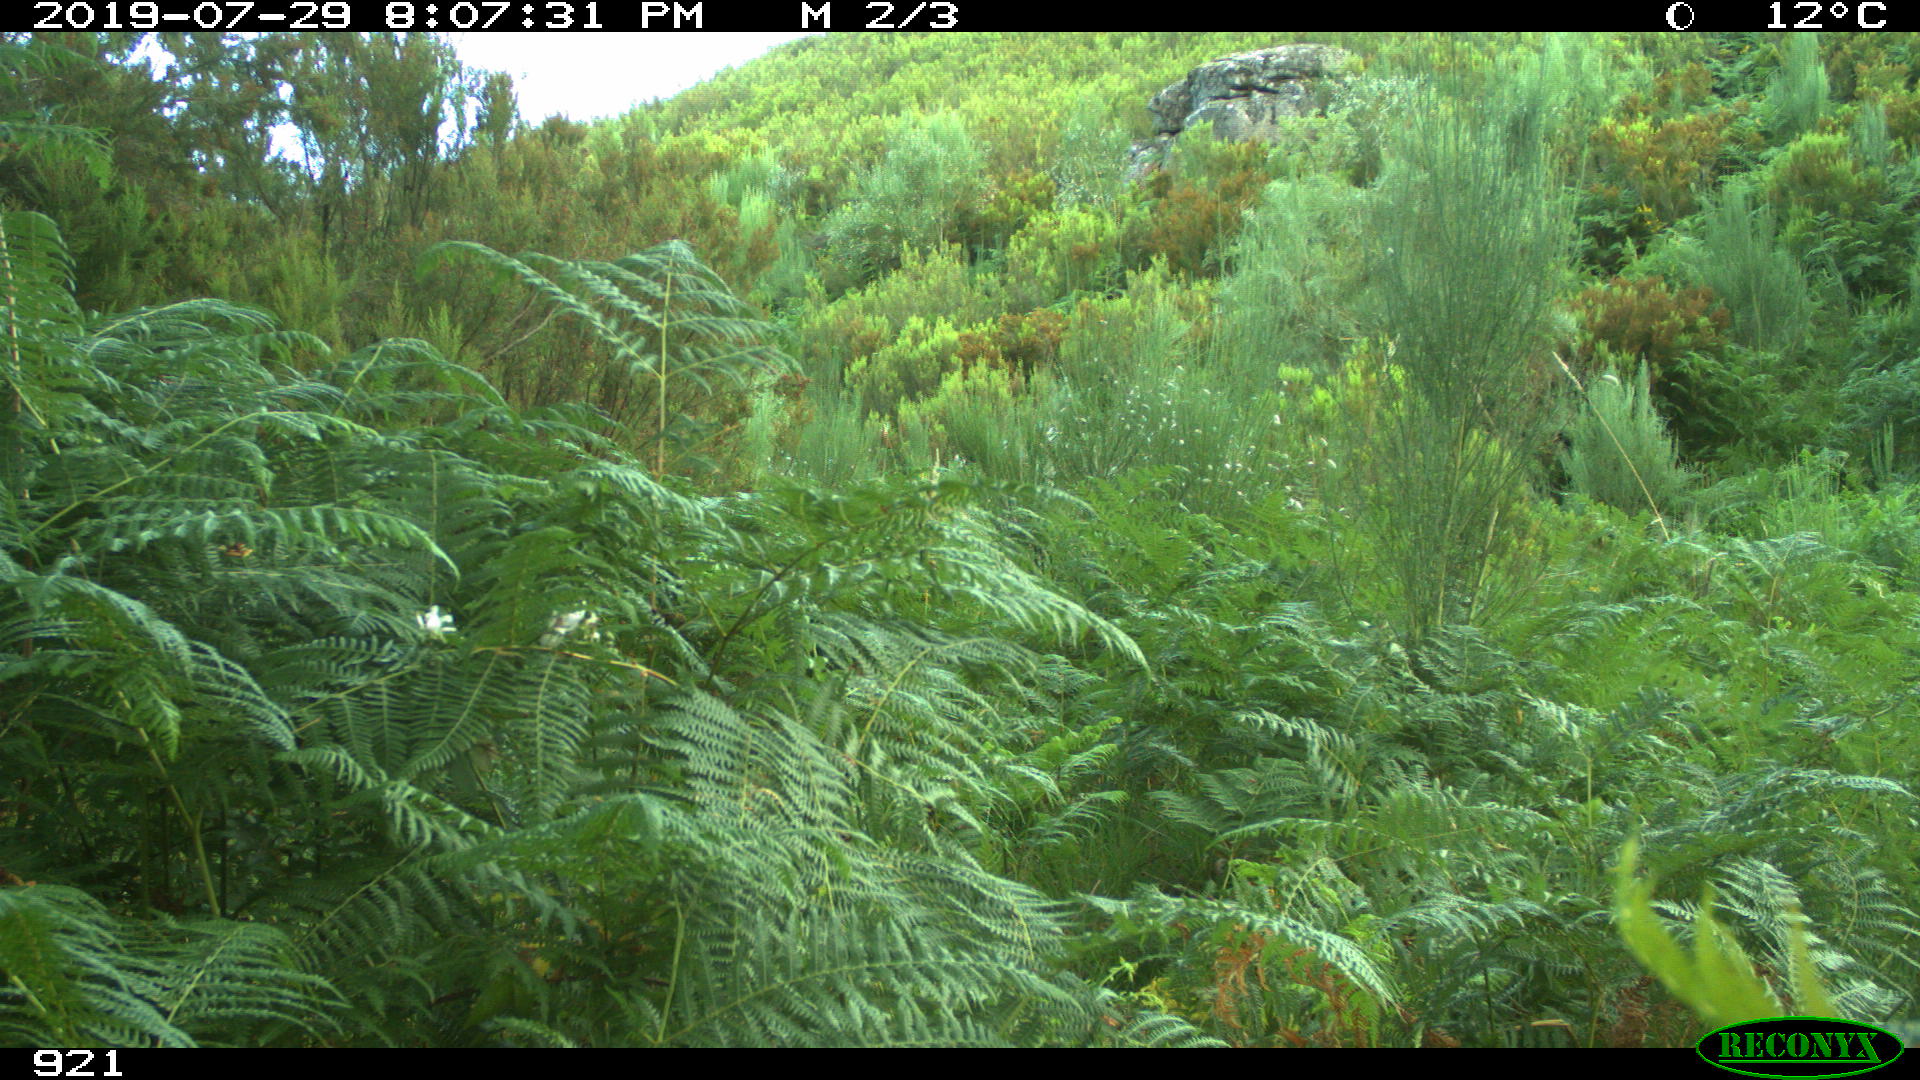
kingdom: Animalia
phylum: Chordata
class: Mammalia
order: Perissodactyla
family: Equidae
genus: Equus
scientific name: Equus caballus
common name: Horse
